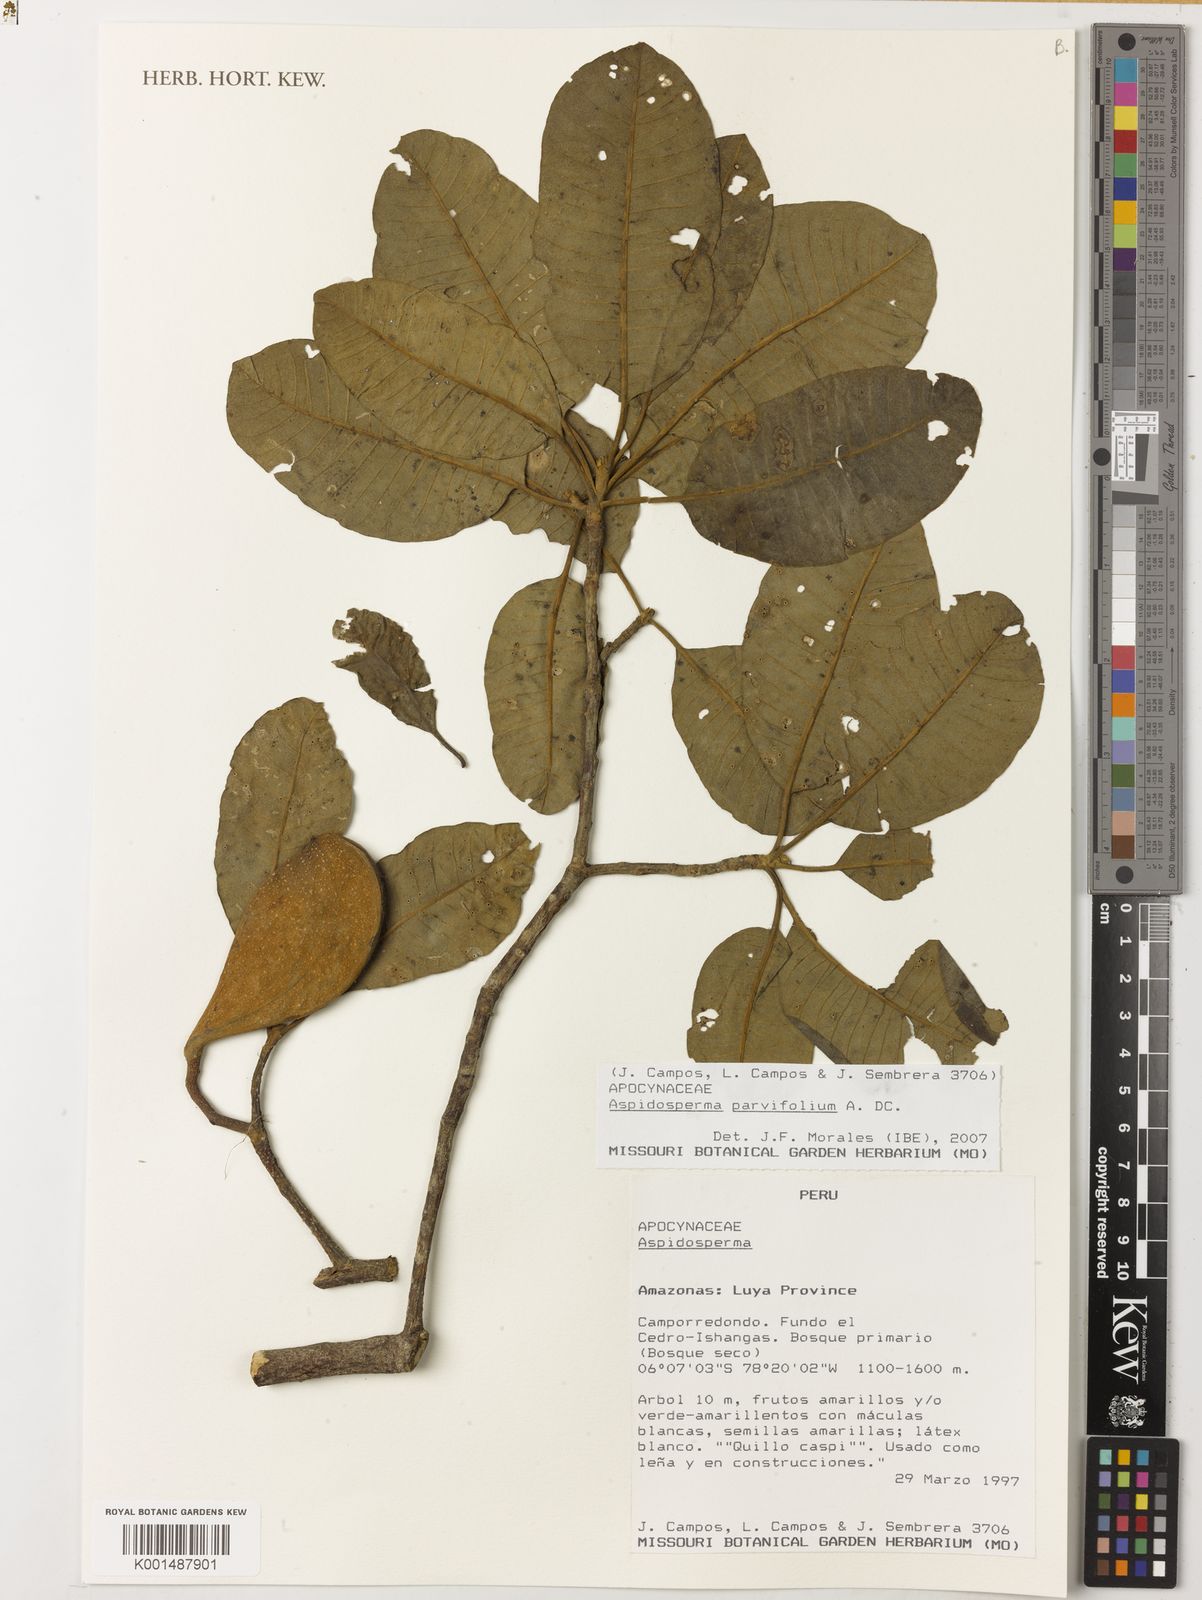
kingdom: Plantae
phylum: Tracheophyta
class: Magnoliopsida
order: Gentianales
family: Apocynaceae
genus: Aspidosperma
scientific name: Aspidosperma parvifolium
